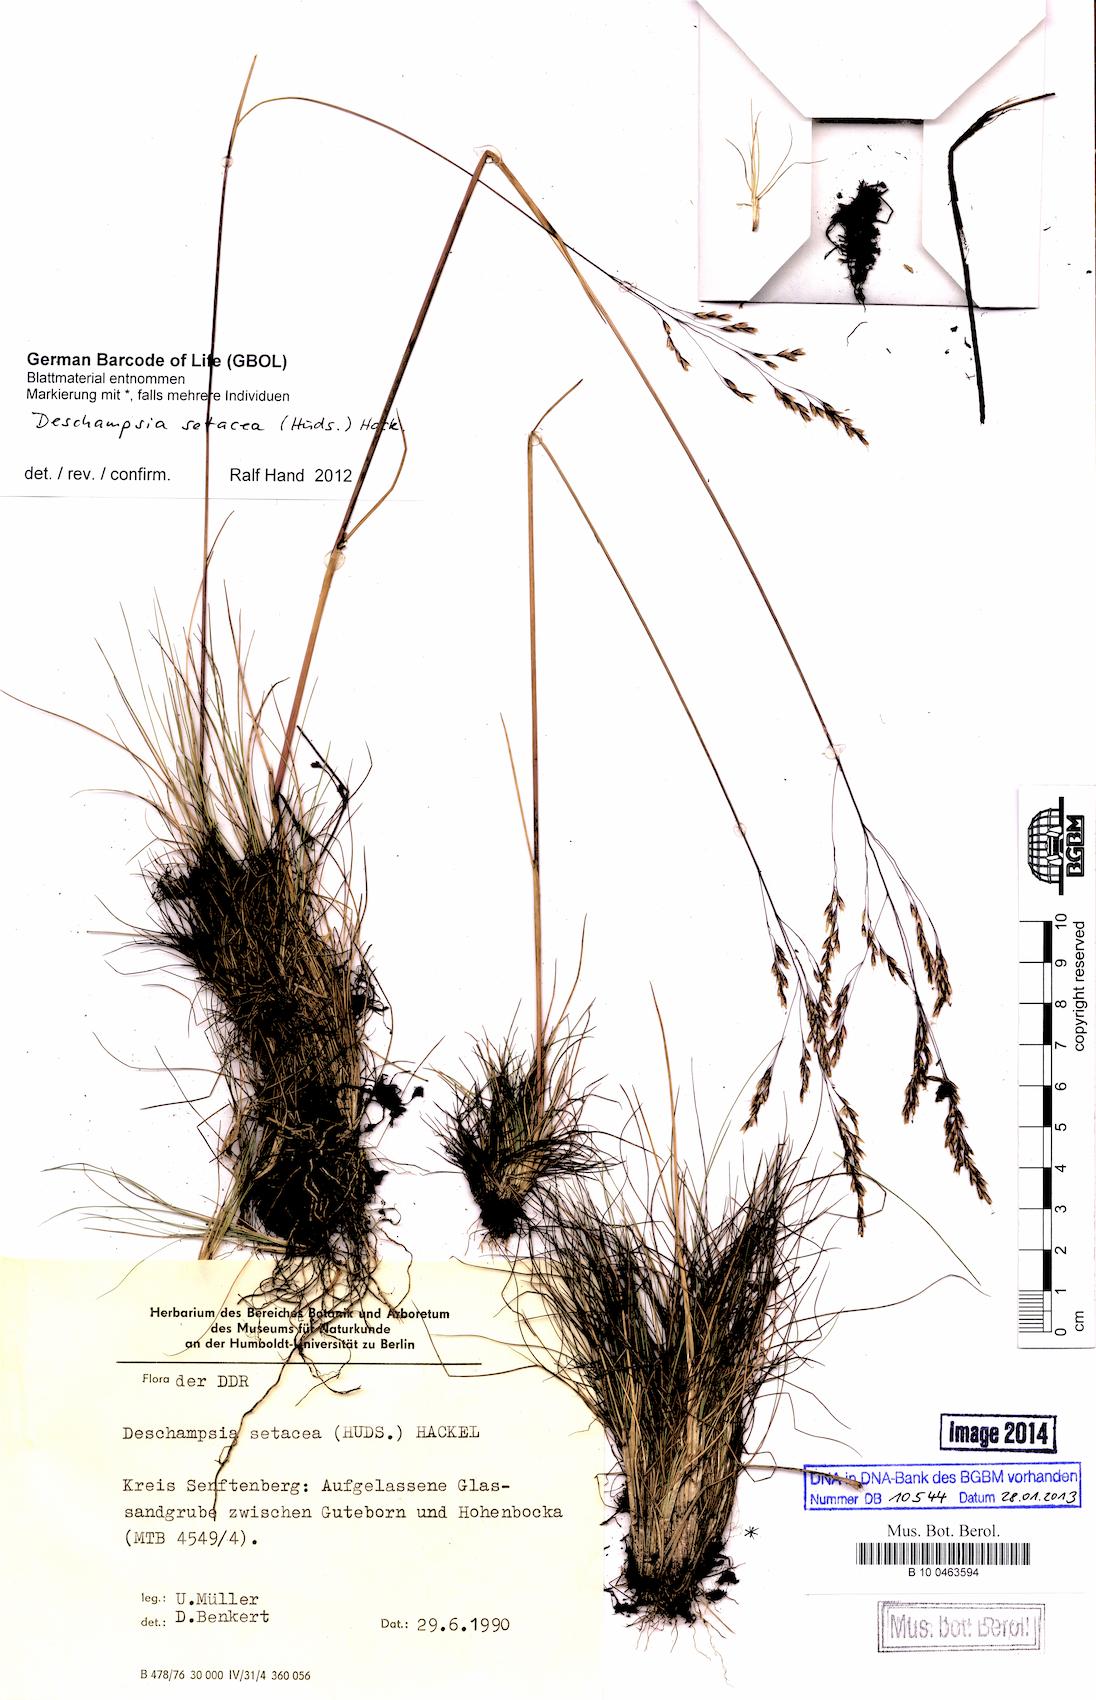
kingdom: Plantae
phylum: Tracheophyta
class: Liliopsida
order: Poales
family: Poaceae
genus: Deschampsia
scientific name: Deschampsia setacea
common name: Bog hair-grass
